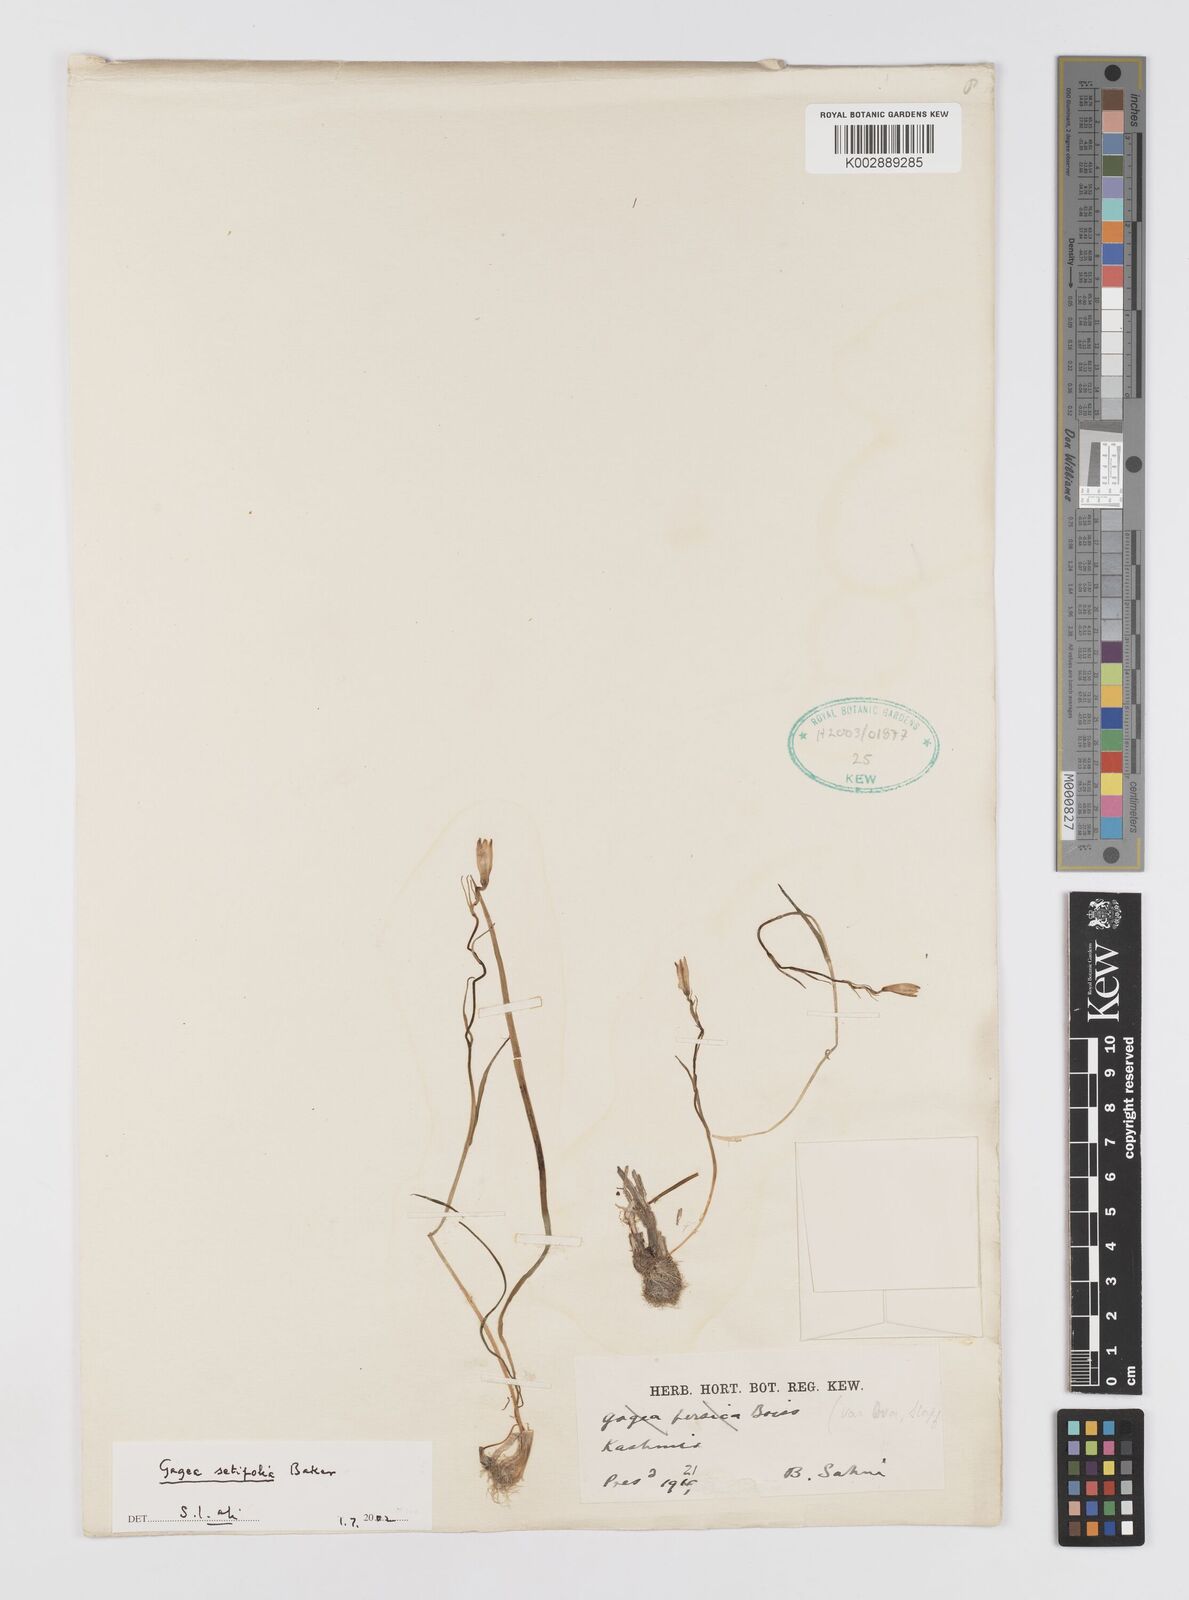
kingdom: Plantae
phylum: Tracheophyta
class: Liliopsida
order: Liliales
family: Liliaceae
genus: Gagea
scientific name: Gagea setifolia
